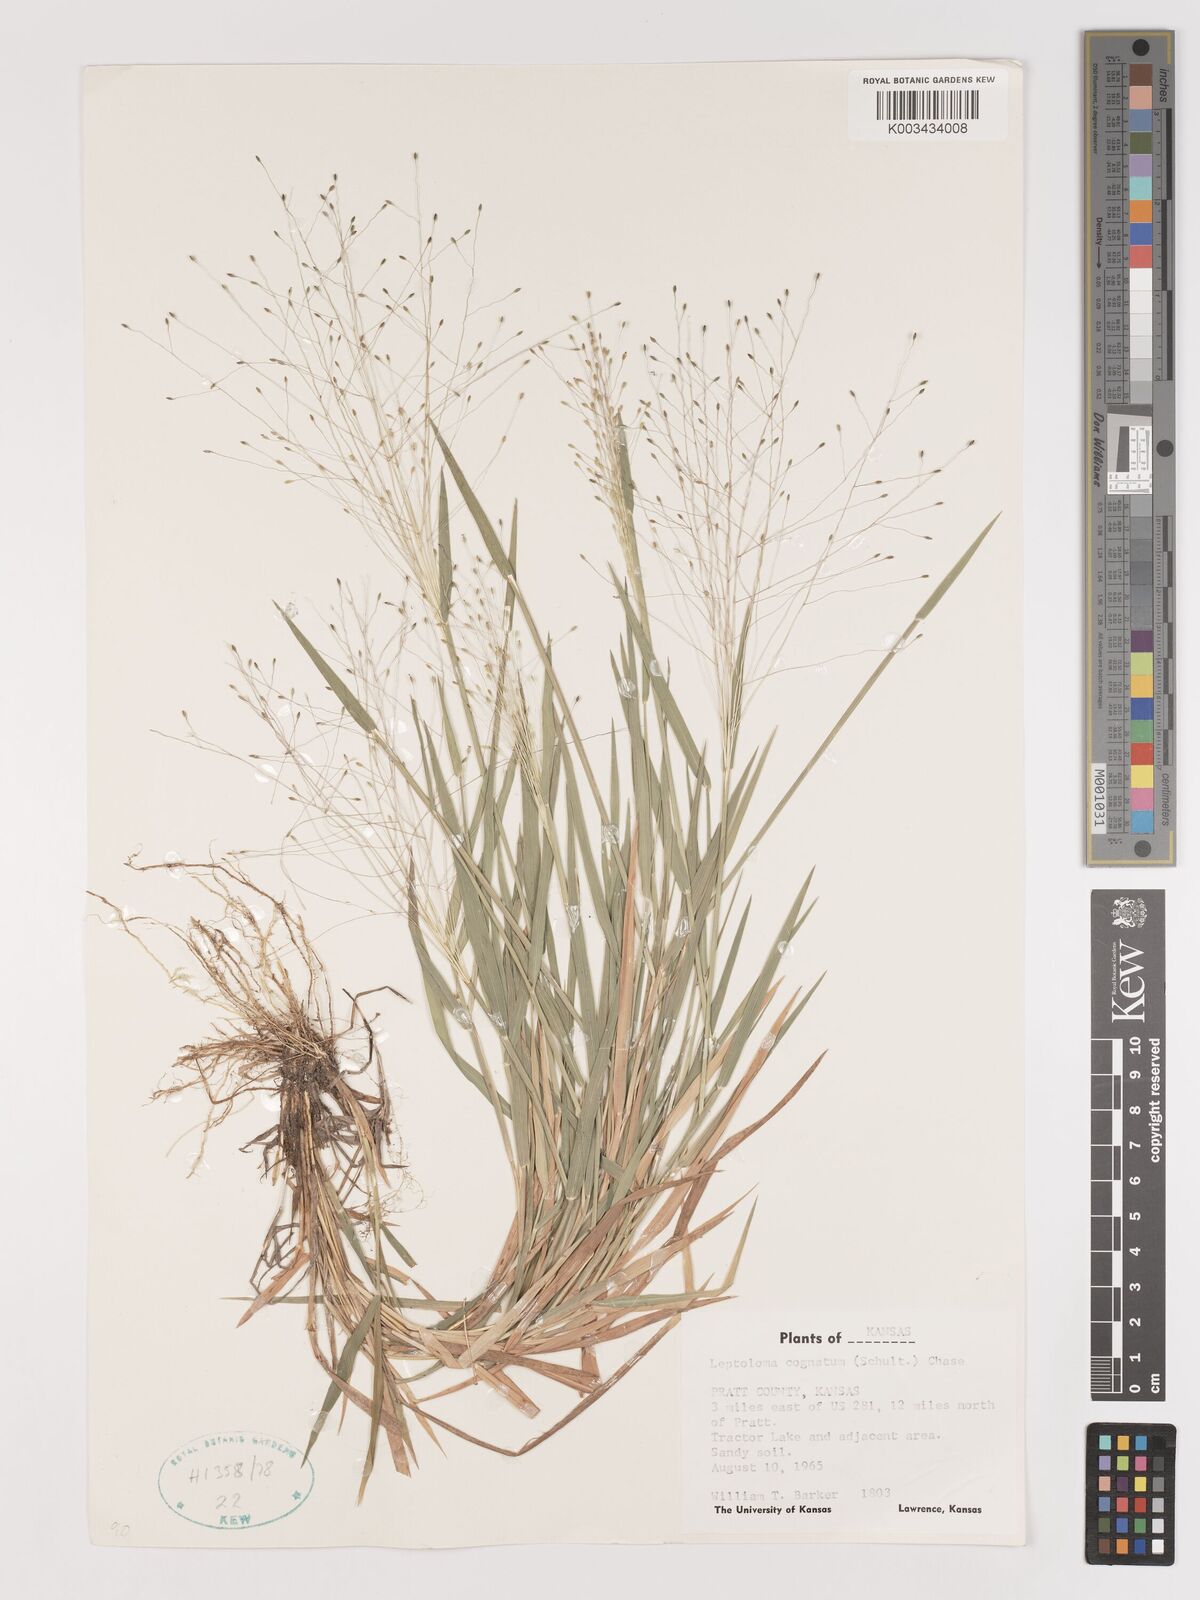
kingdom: Plantae
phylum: Tracheophyta
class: Liliopsida
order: Poales
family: Poaceae
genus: Digitaria
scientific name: Digitaria cognata
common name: Fall witchgrass
